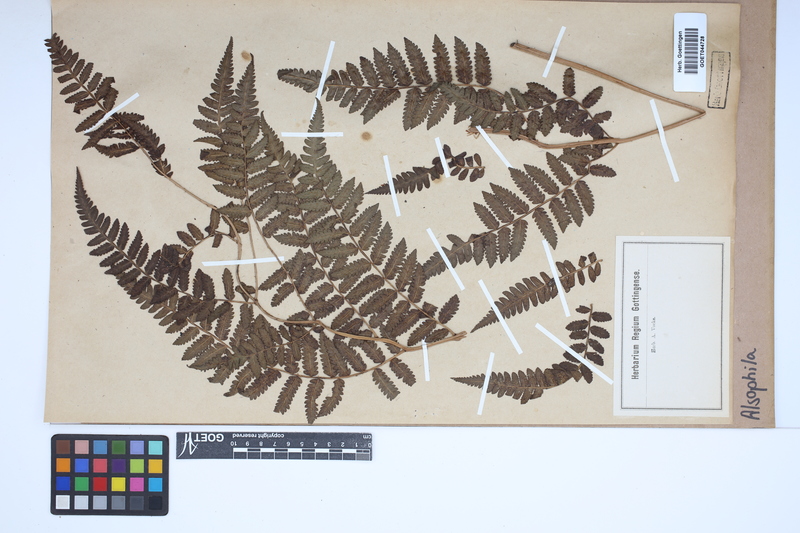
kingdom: Plantae
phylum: Tracheophyta
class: Polypodiopsida
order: Cyatheales
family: Cyatheaceae
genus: Alsophila
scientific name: Alsophila
